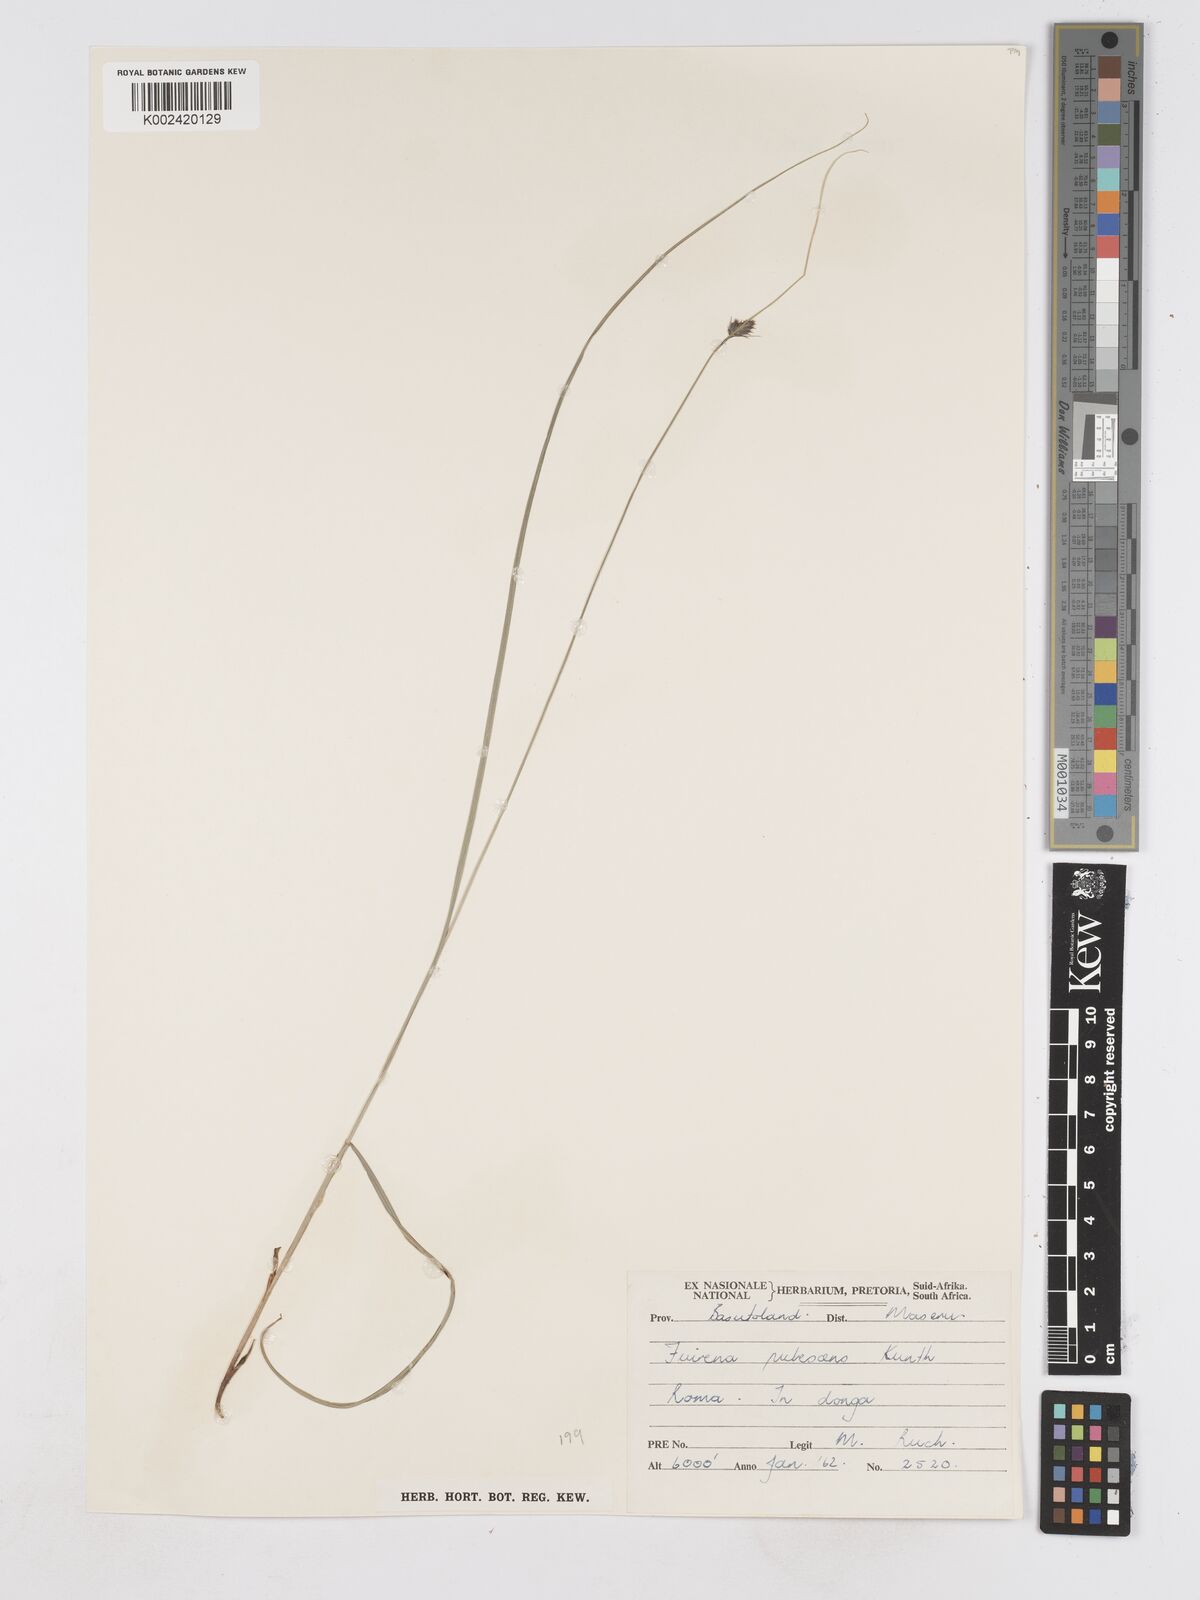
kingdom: Plantae
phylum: Tracheophyta
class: Liliopsida
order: Poales
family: Cyperaceae
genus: Fuirena
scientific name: Fuirena pubescens
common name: Hairy sedge
